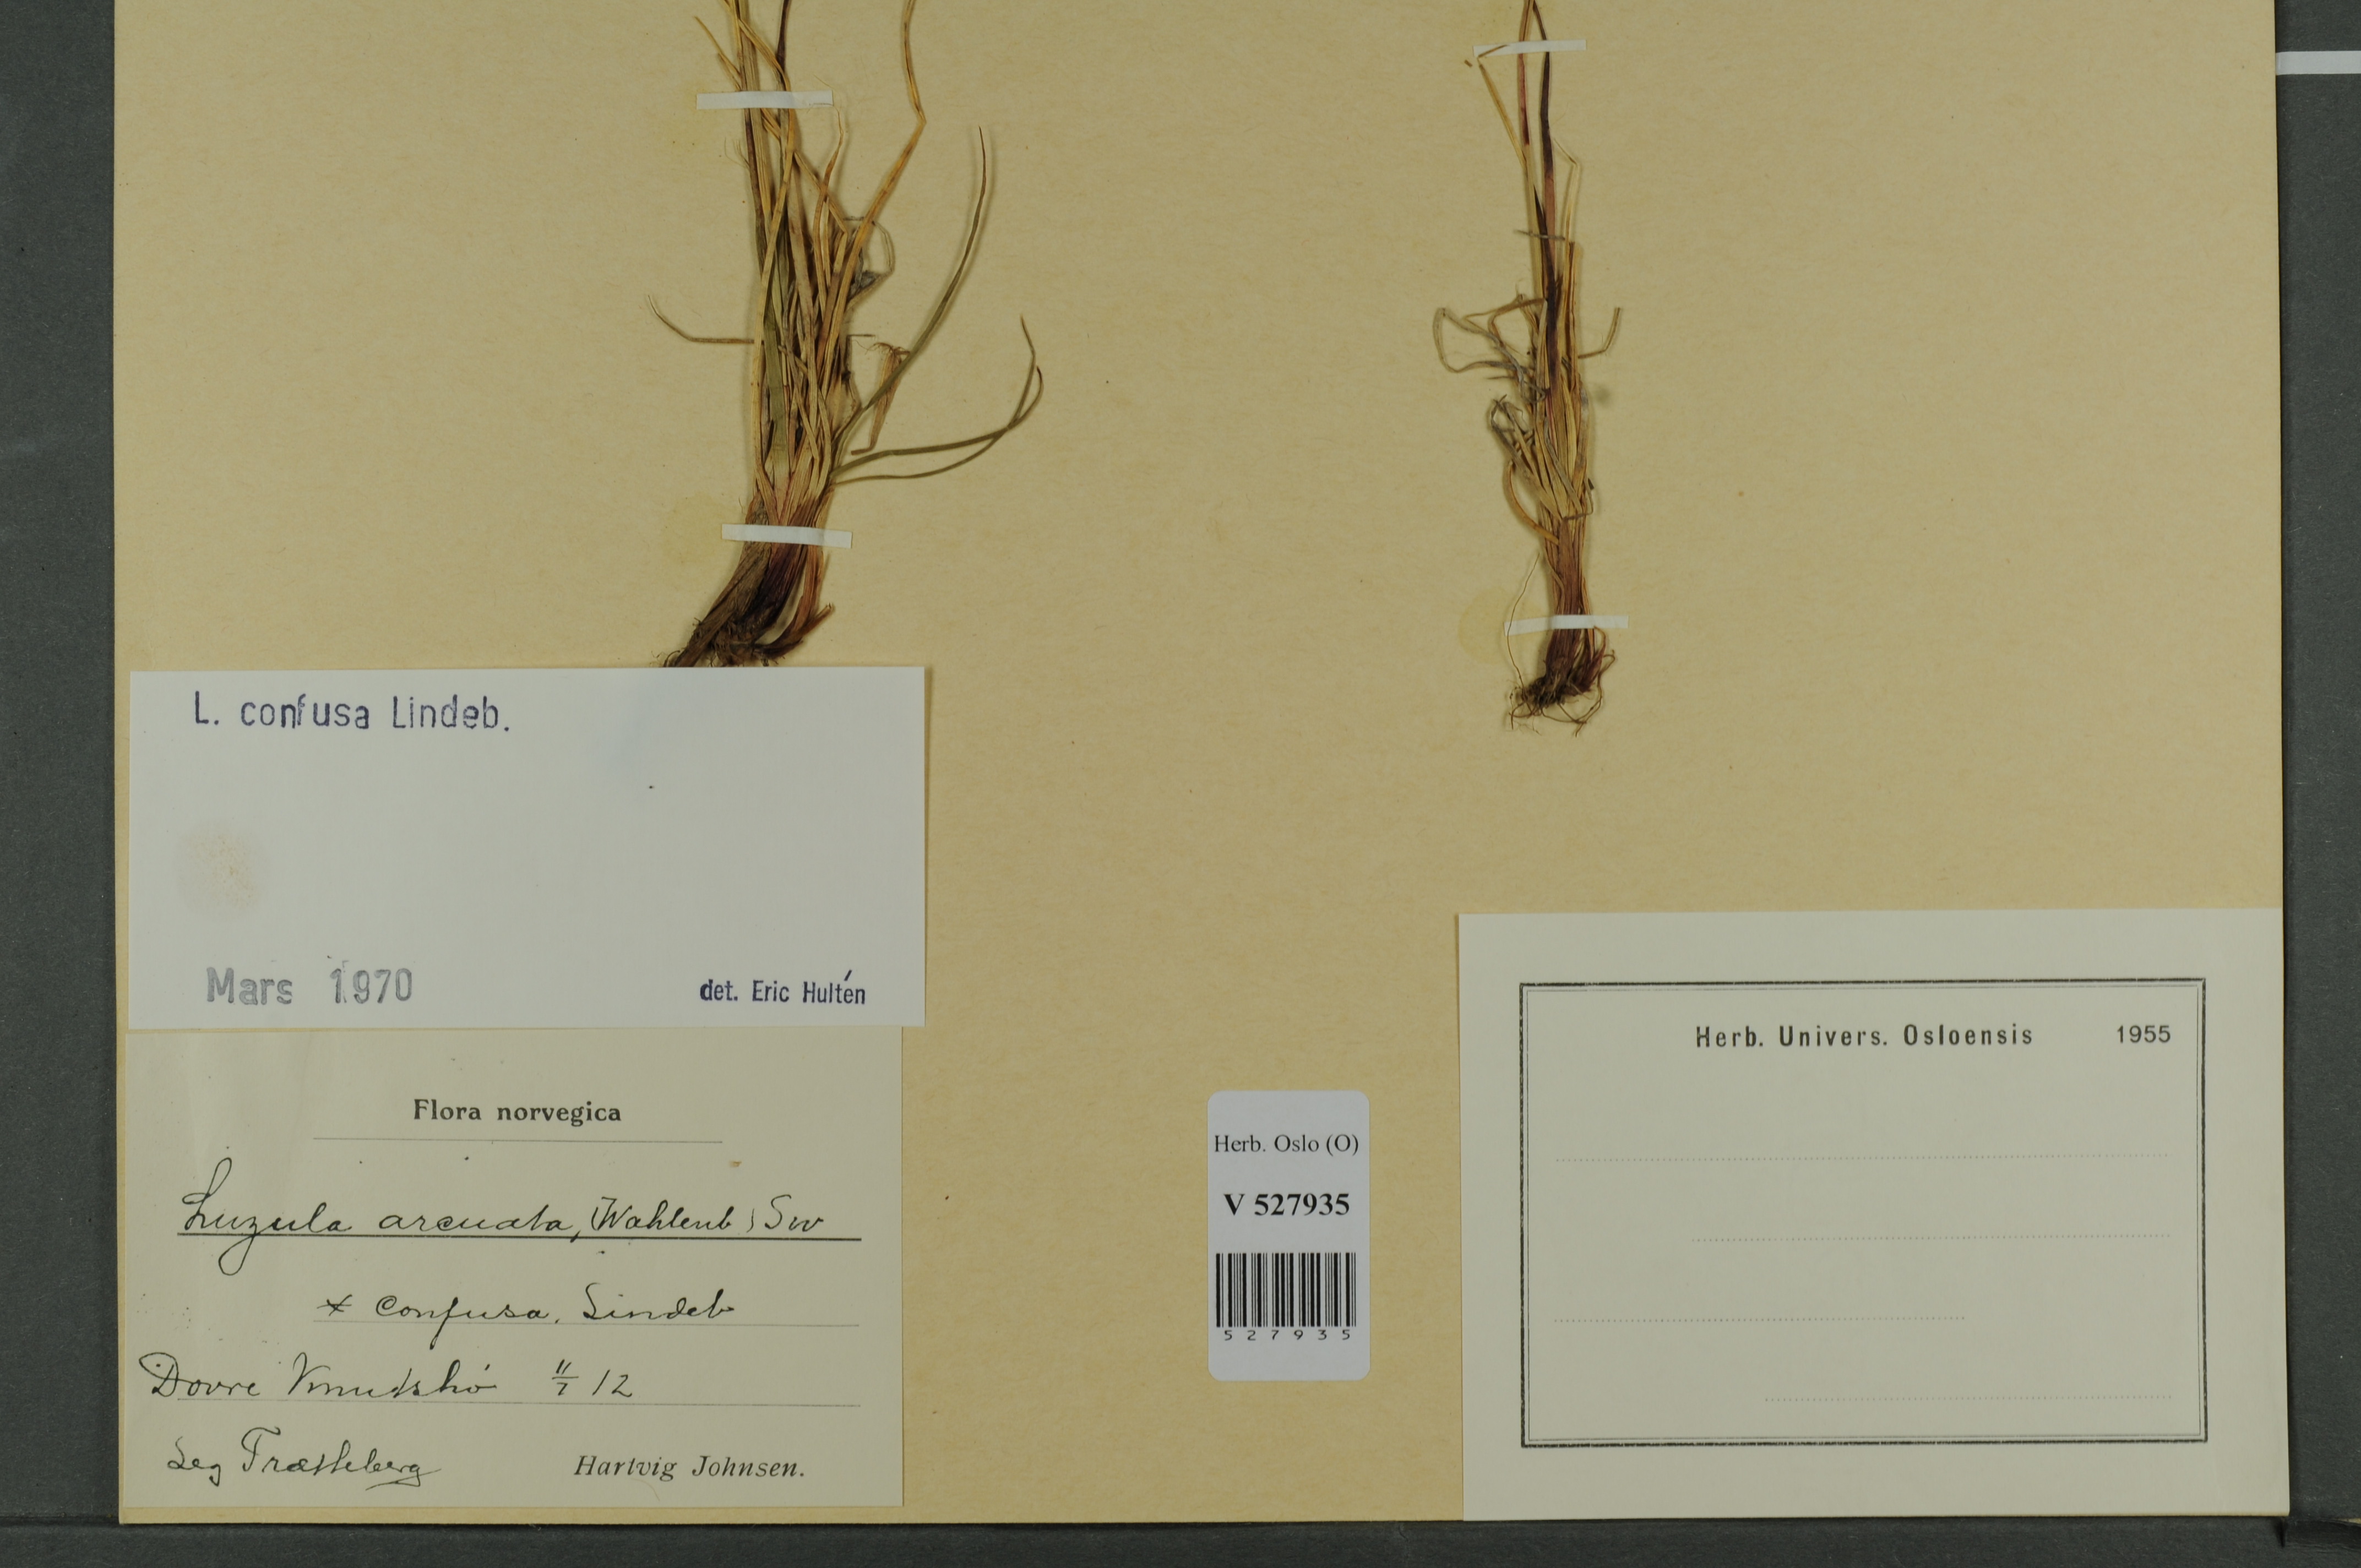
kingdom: Plantae
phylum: Tracheophyta
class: Liliopsida
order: Poales
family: Juncaceae
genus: Luzula
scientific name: Luzula confusa
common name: Northern wood rush
